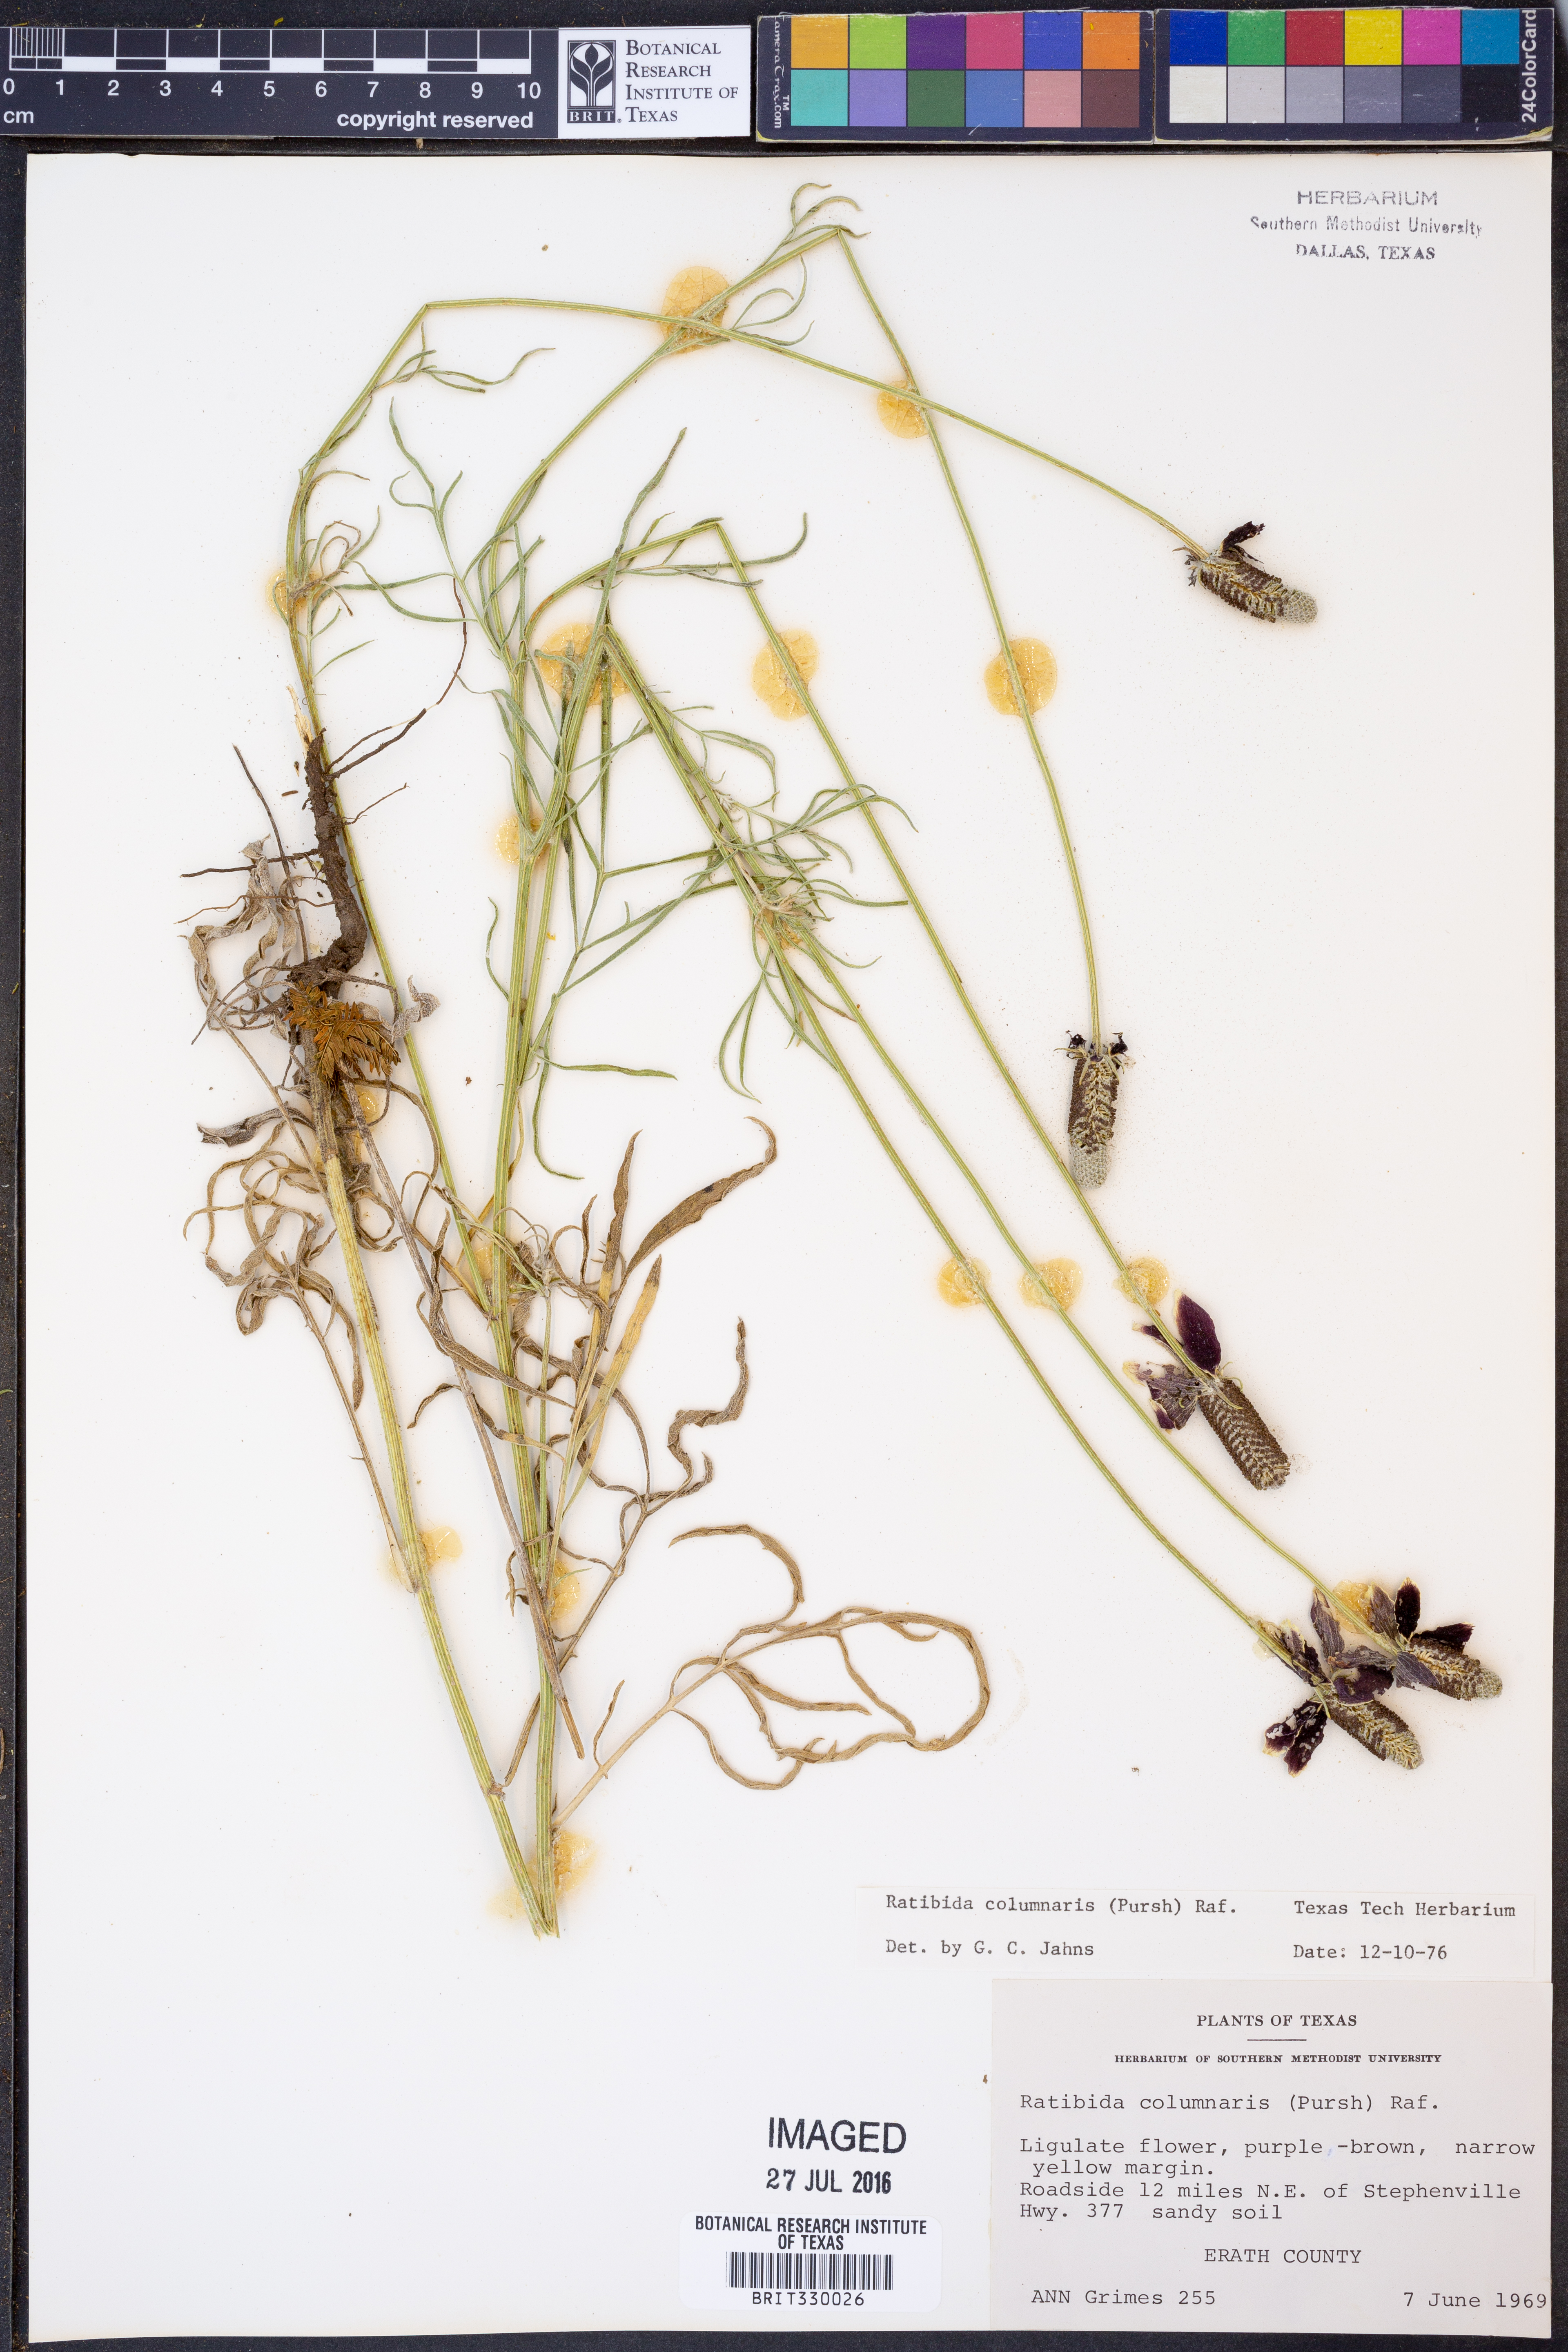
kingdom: Plantae
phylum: Tracheophyta
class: Magnoliopsida
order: Asterales
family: Asteraceae
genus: Ratibida
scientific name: Ratibida columnifera
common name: Prairie coneflower
